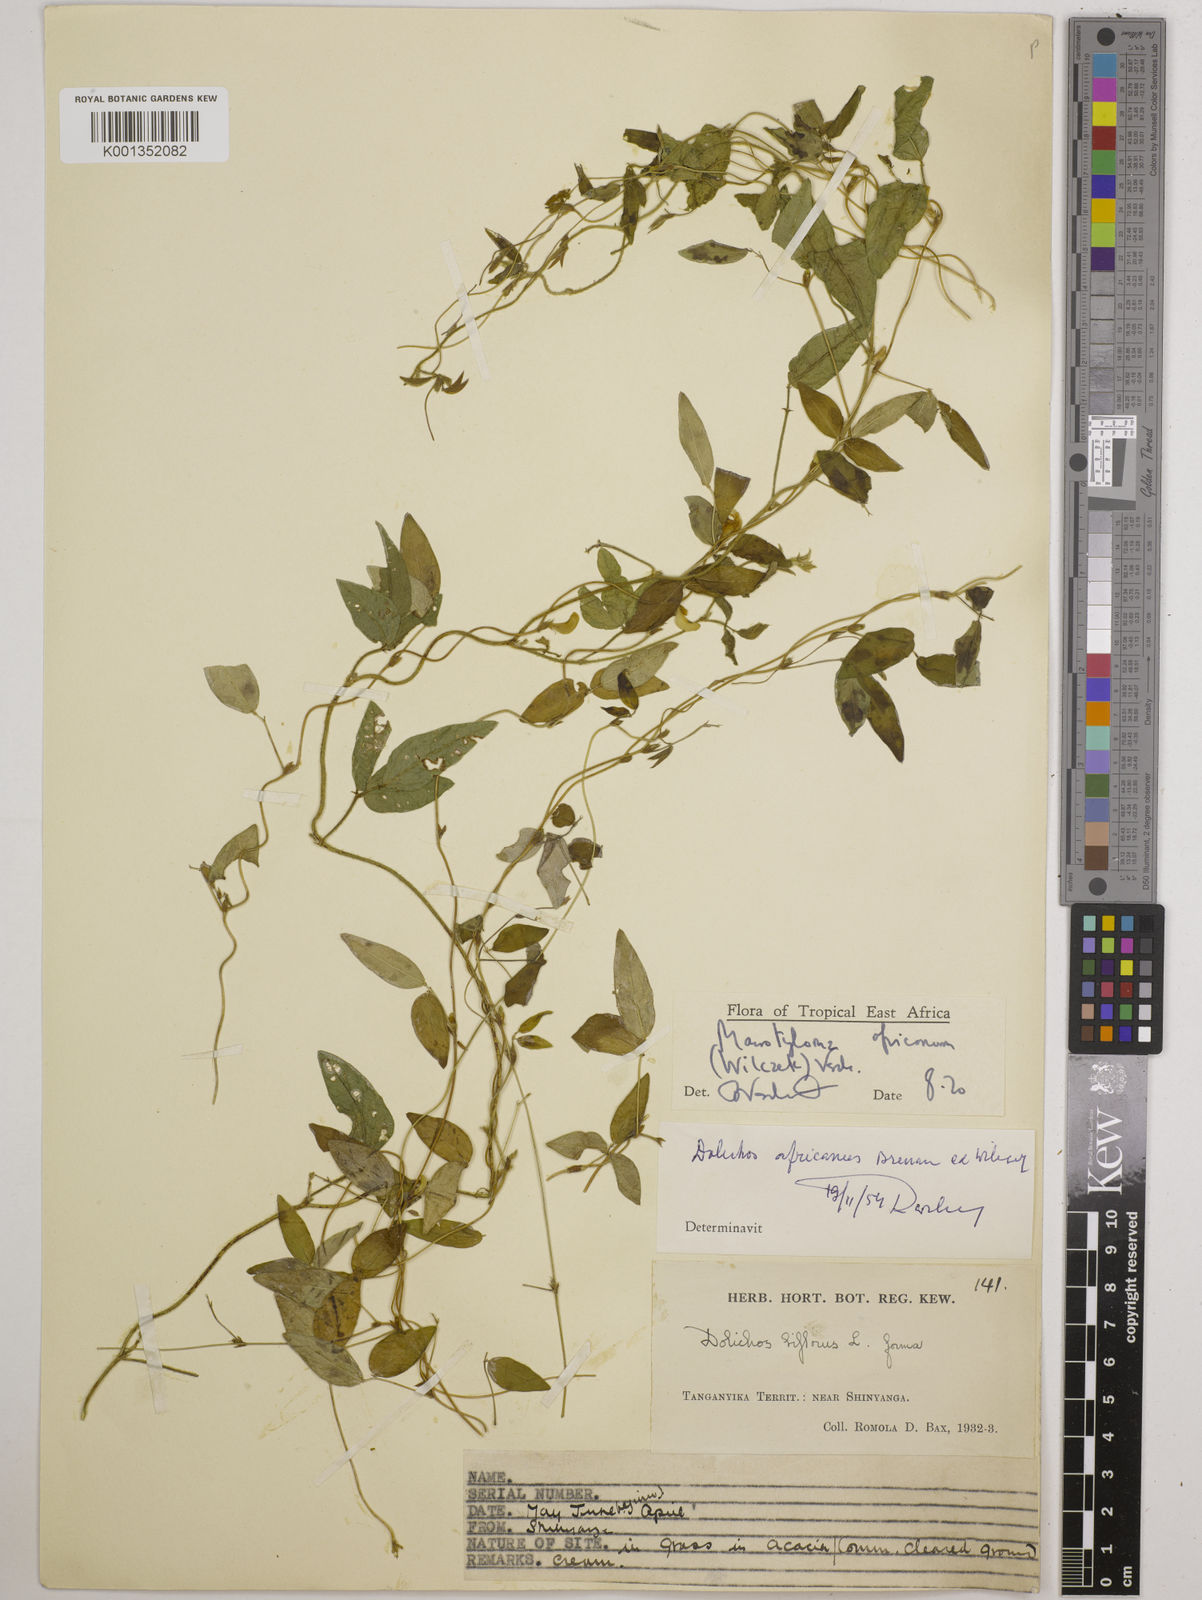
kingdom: Plantae
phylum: Tracheophyta
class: Magnoliopsida
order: Fabales
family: Fabaceae
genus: Macrotyloma
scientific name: Macrotyloma africanum
